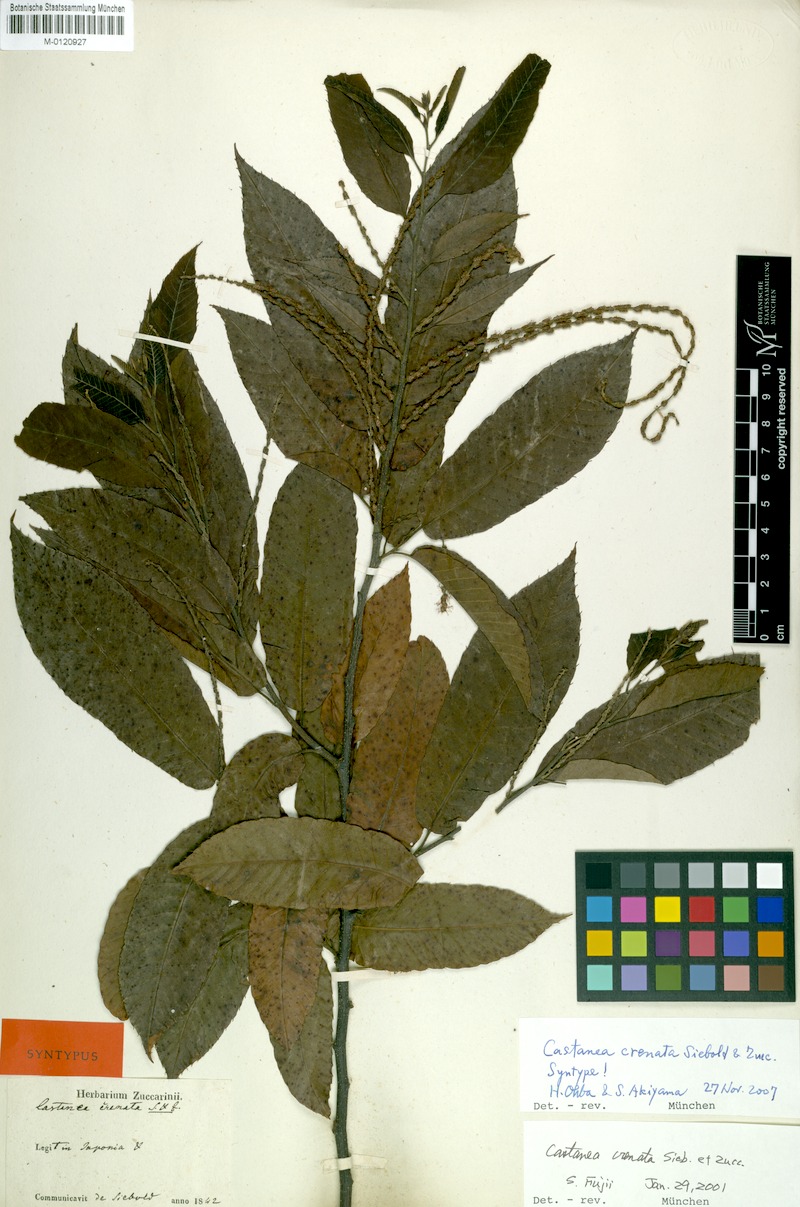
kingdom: Plantae
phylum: Tracheophyta
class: Magnoliopsida
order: Fagales
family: Fagaceae
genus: Castanea
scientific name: Castanea crenata
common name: Japanese chestnut
